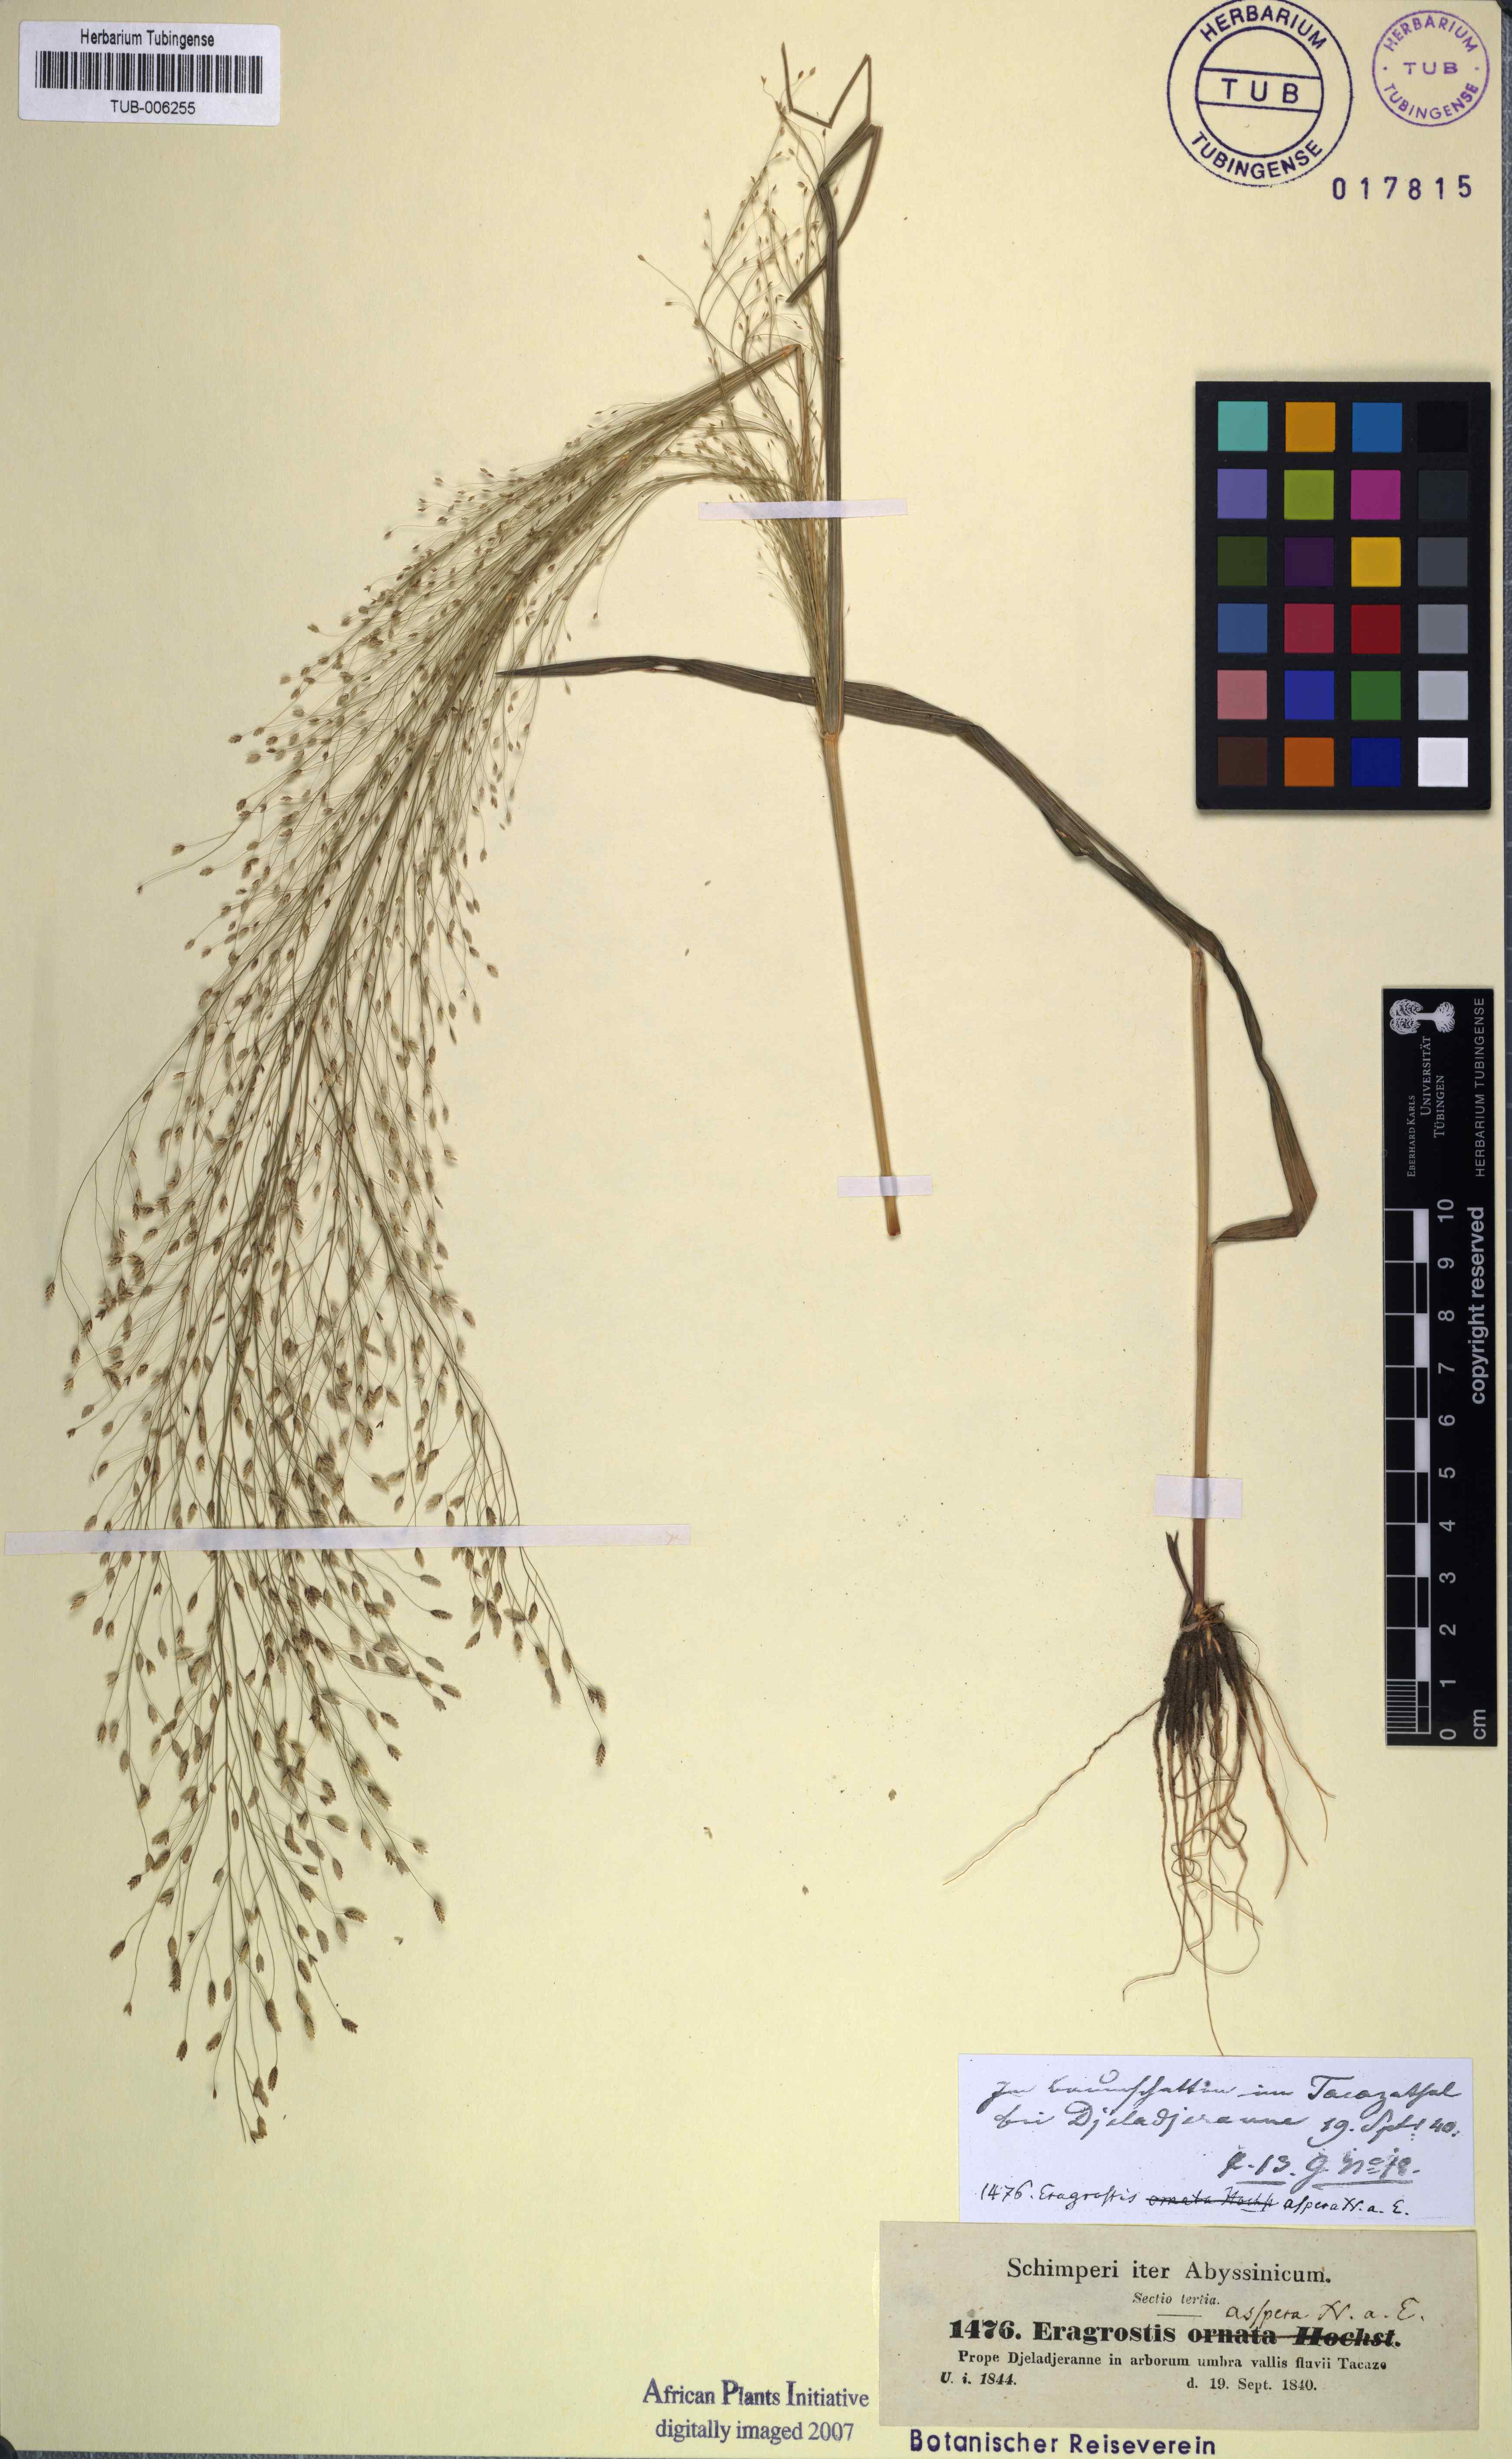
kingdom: Plantae
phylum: Tracheophyta
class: Liliopsida
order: Poales
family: Poaceae
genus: Eragrostis
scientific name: Eragrostis aspera
